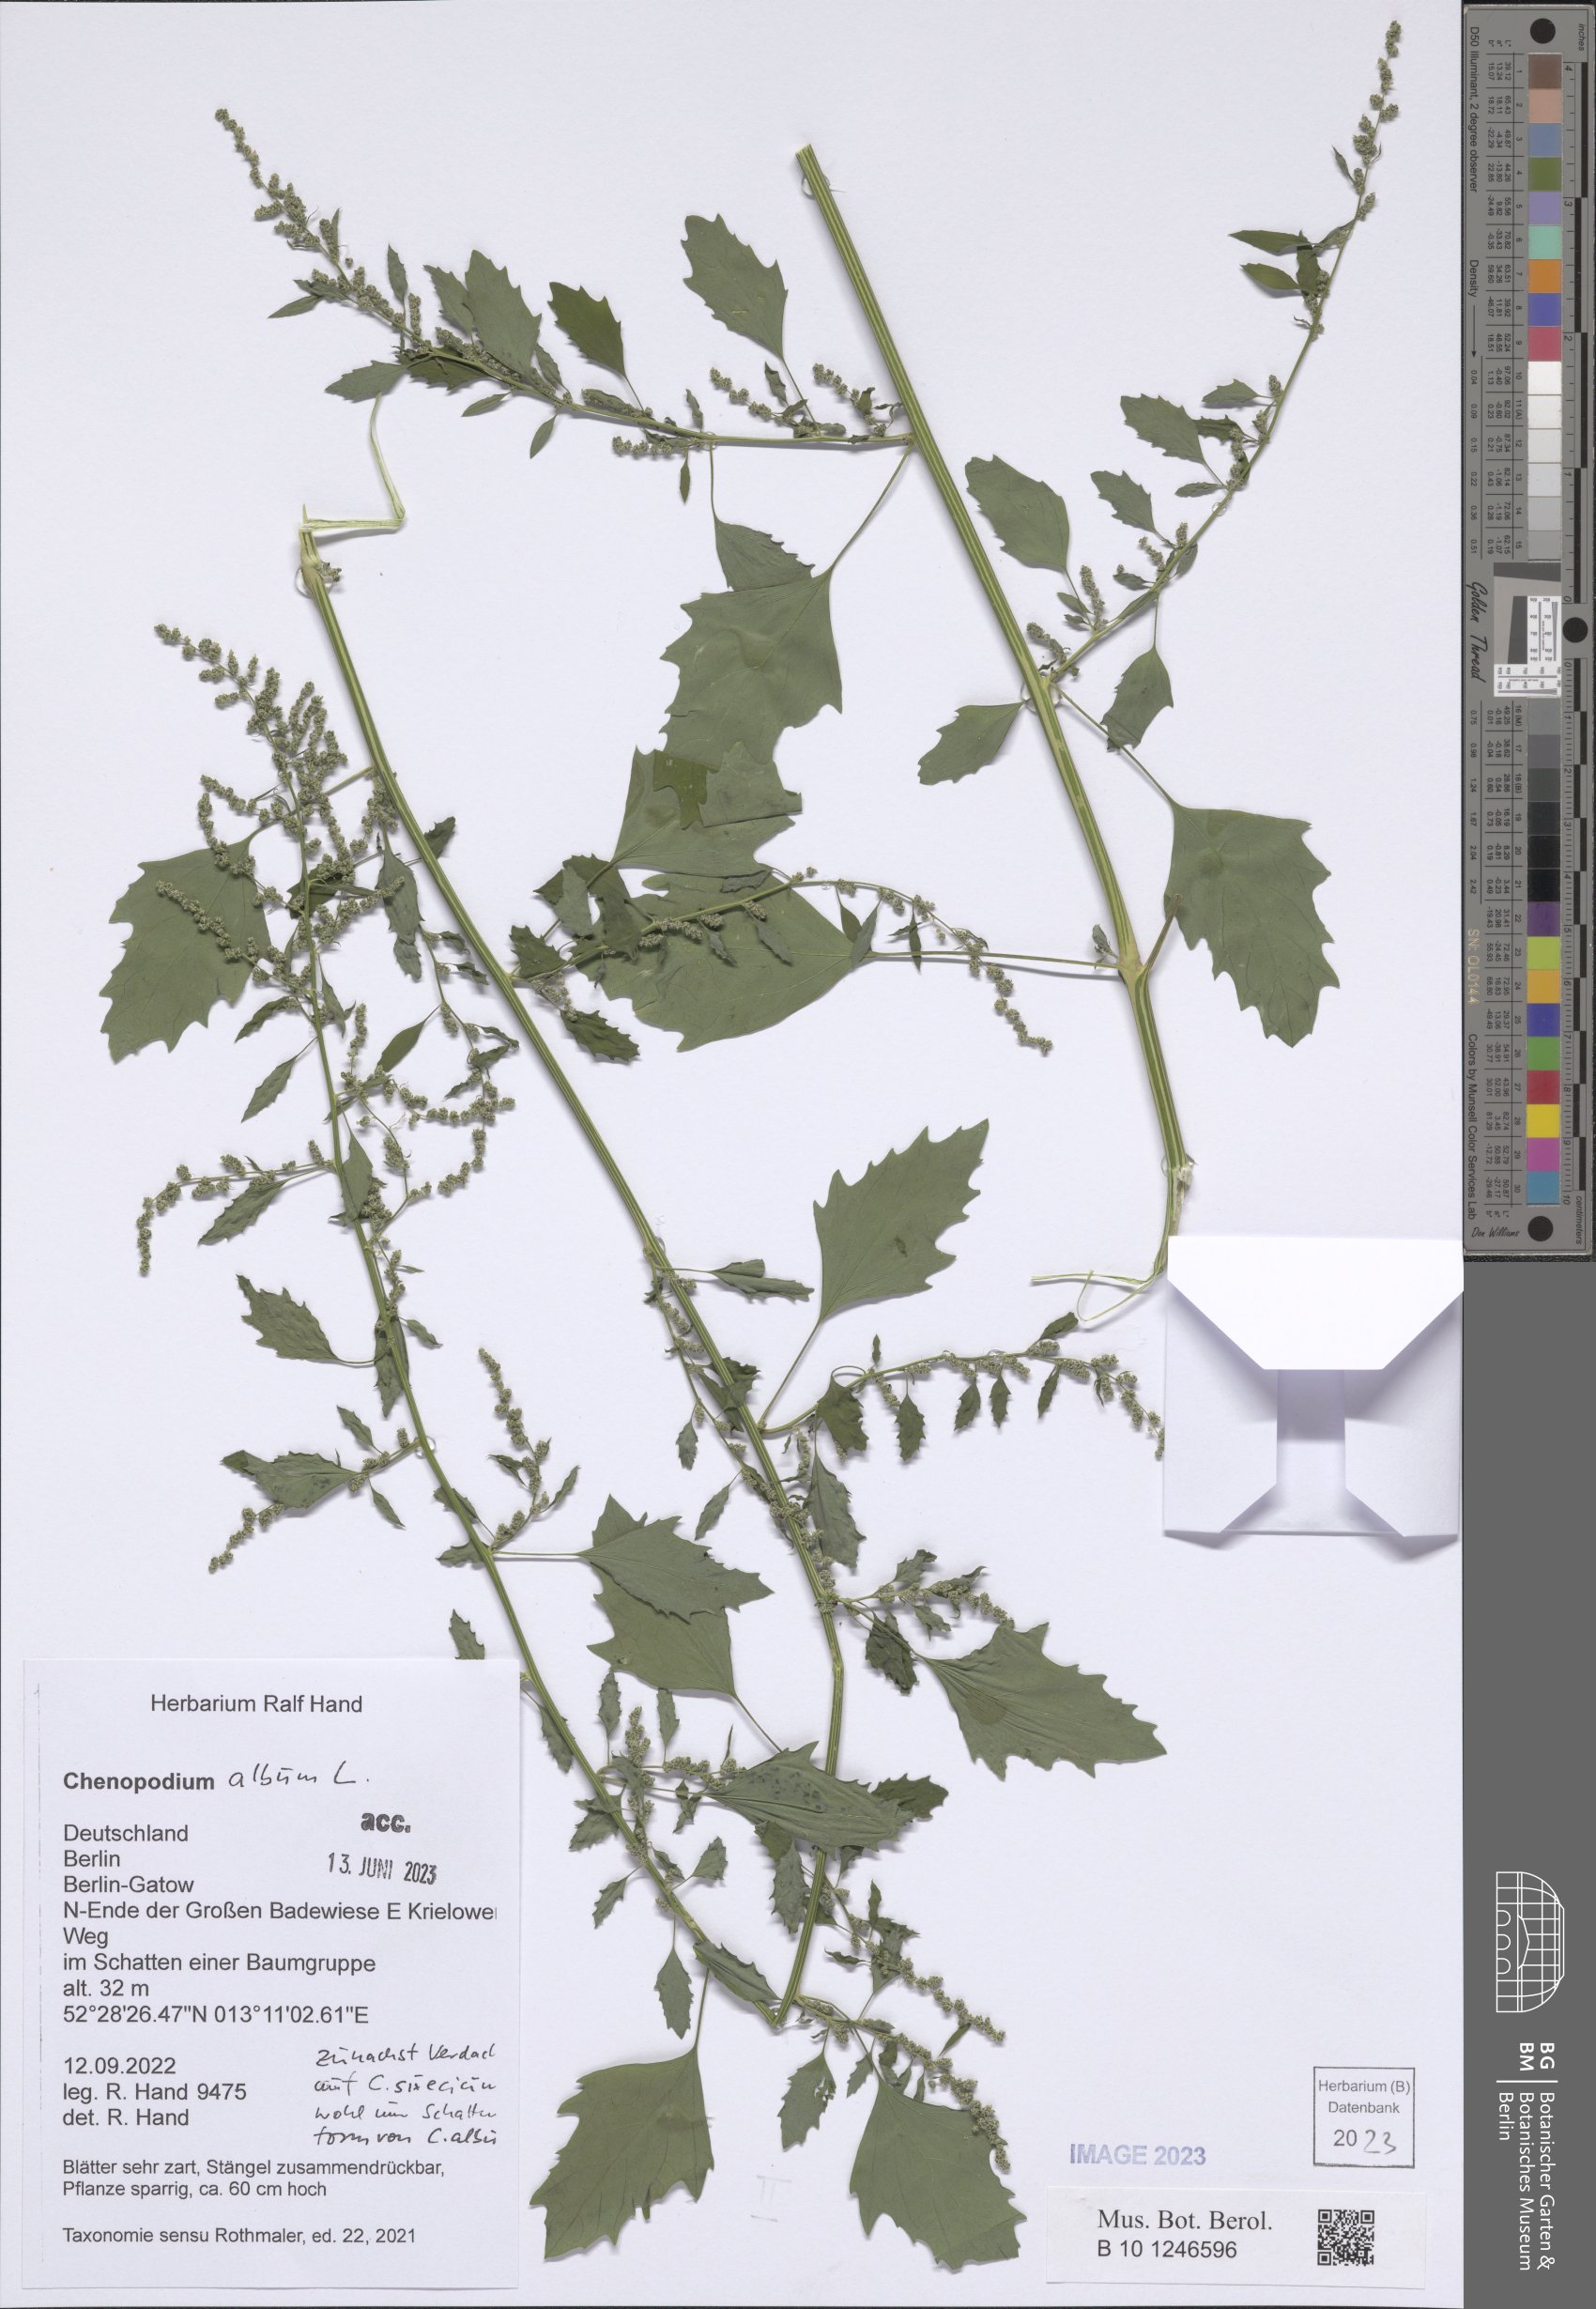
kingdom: Plantae
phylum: Tracheophyta
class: Magnoliopsida
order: Caryophyllales
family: Amaranthaceae
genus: Chenopodium
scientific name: Chenopodium album
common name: Fat-hen
